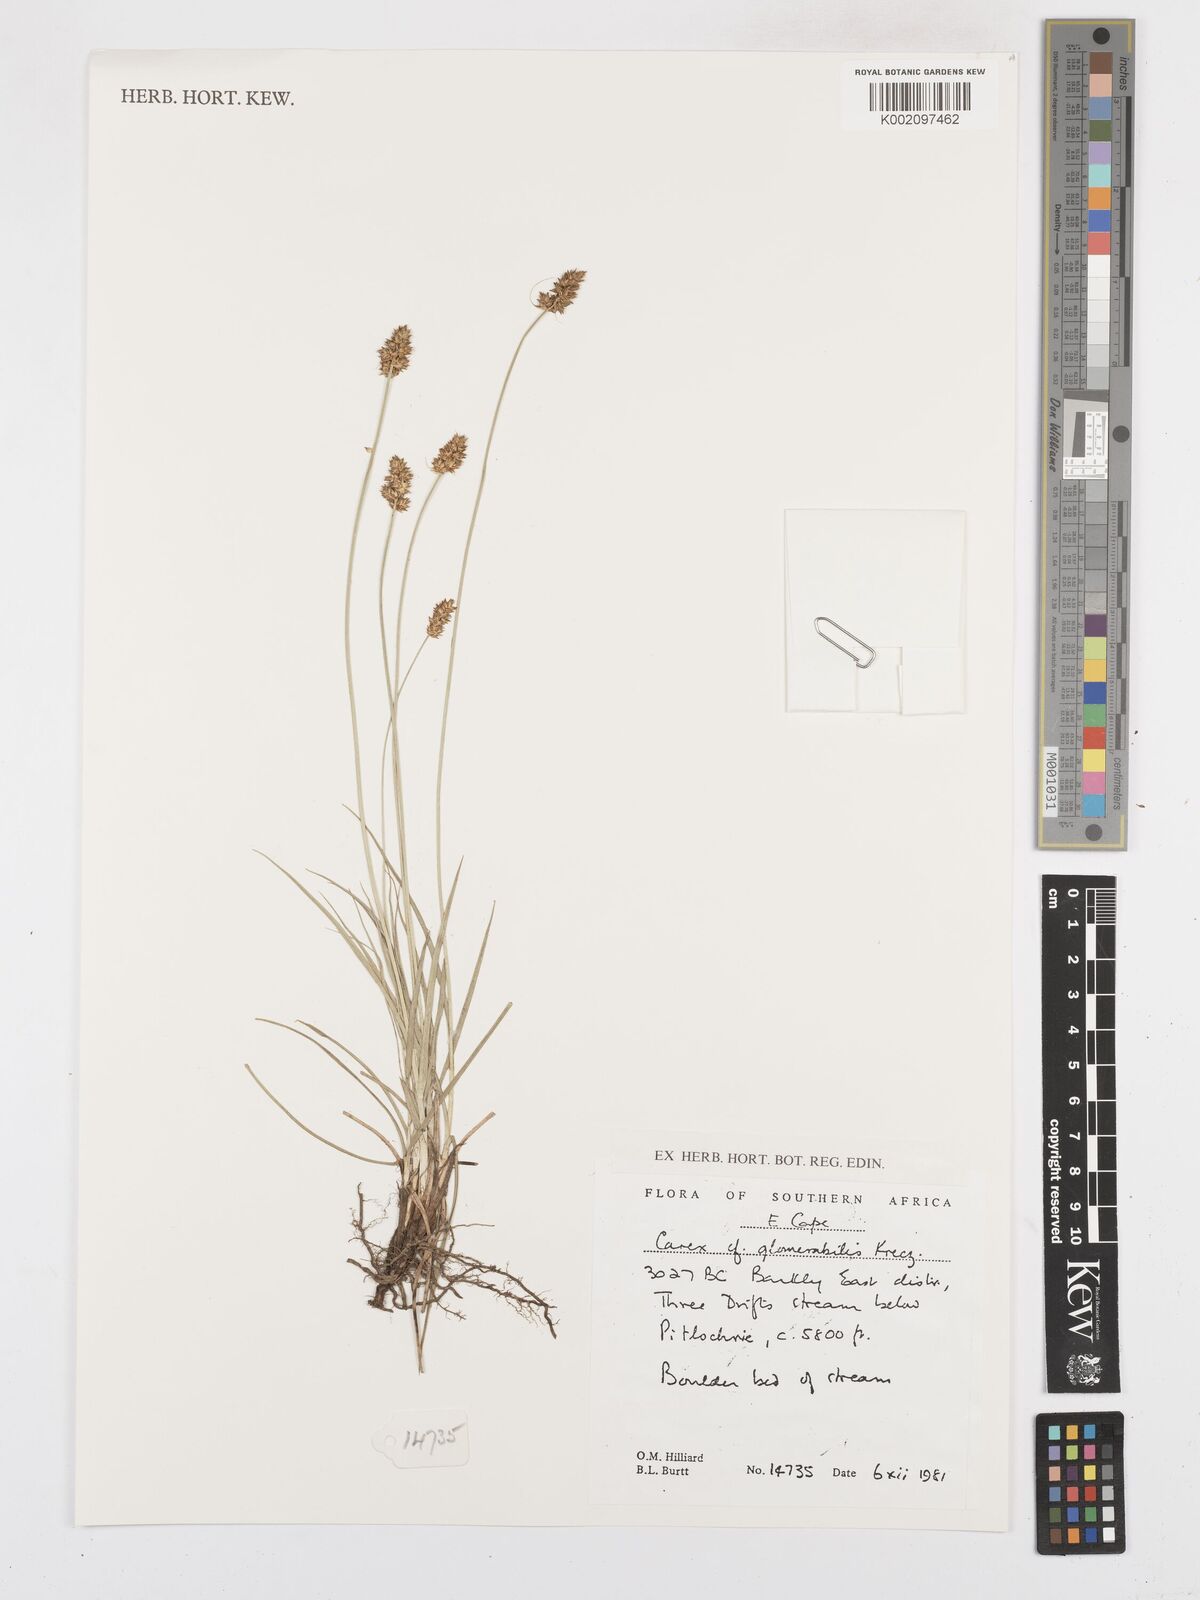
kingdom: Plantae
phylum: Tracheophyta
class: Liliopsida
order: Poales
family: Cyperaceae
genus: Carex
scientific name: Carex glomerata
